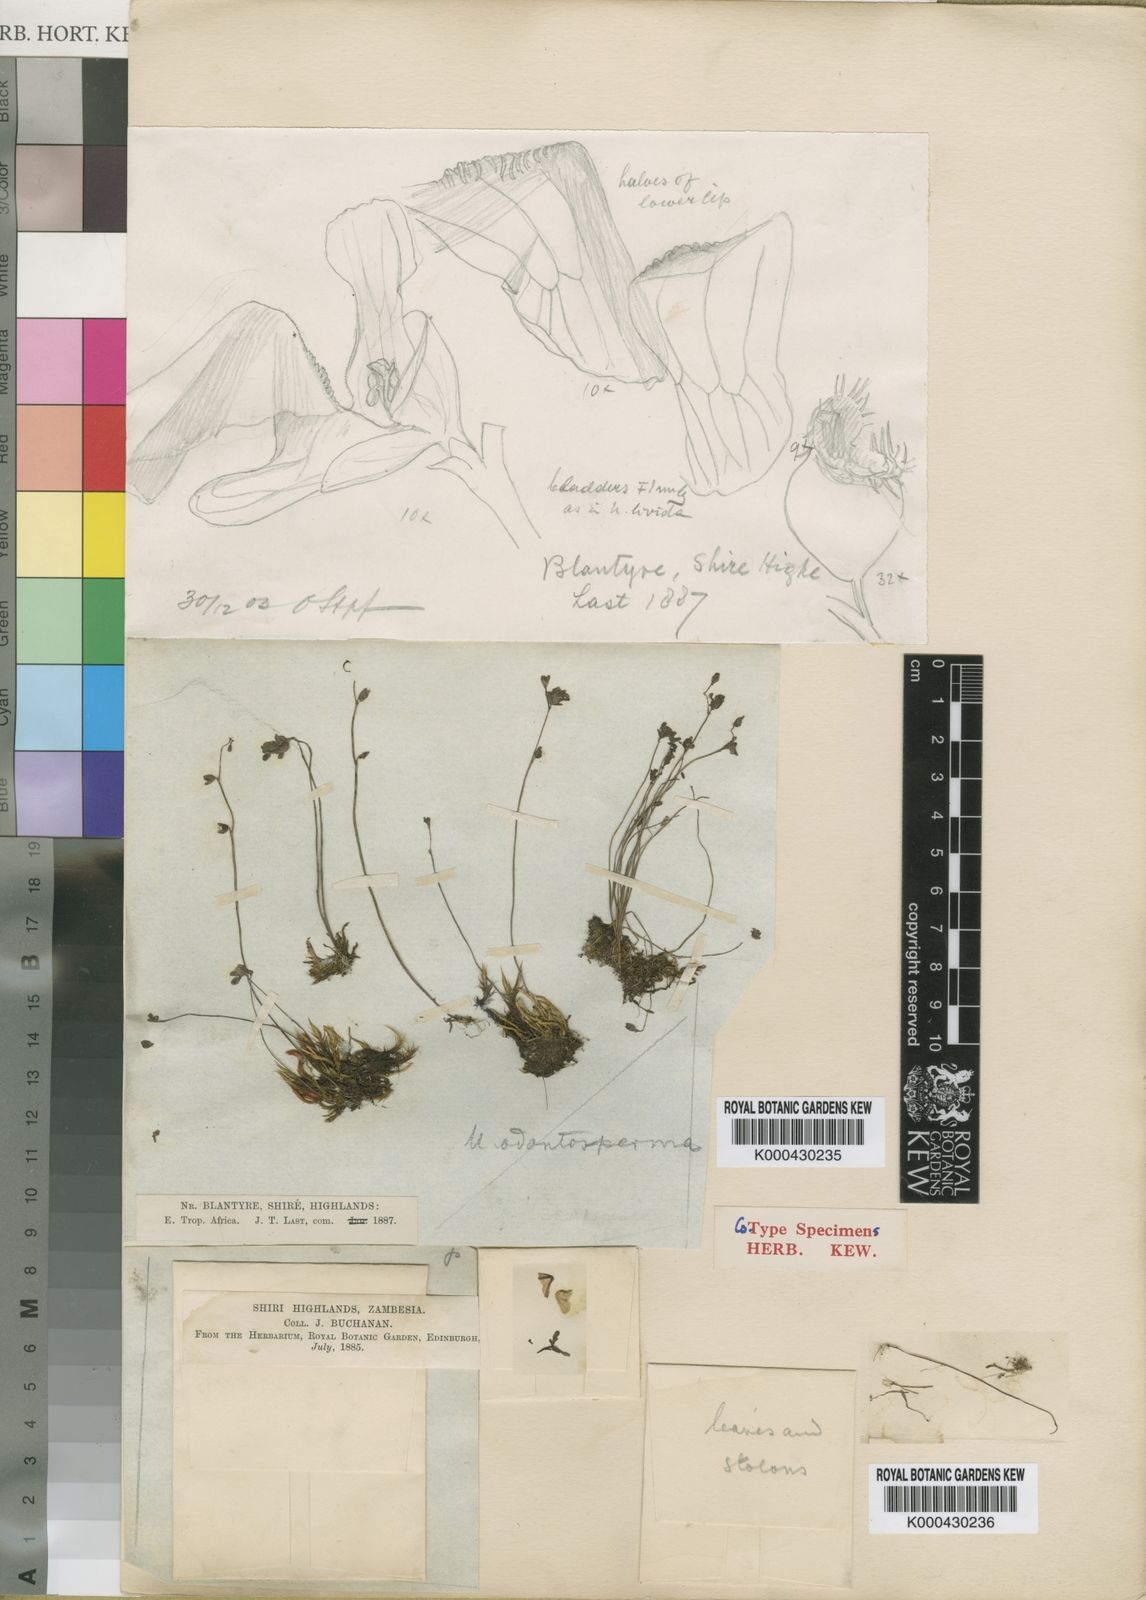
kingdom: Plantae
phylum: Tracheophyta
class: Magnoliopsida
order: Lamiales
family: Lentibulariaceae
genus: Utricularia
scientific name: Utricularia livida
